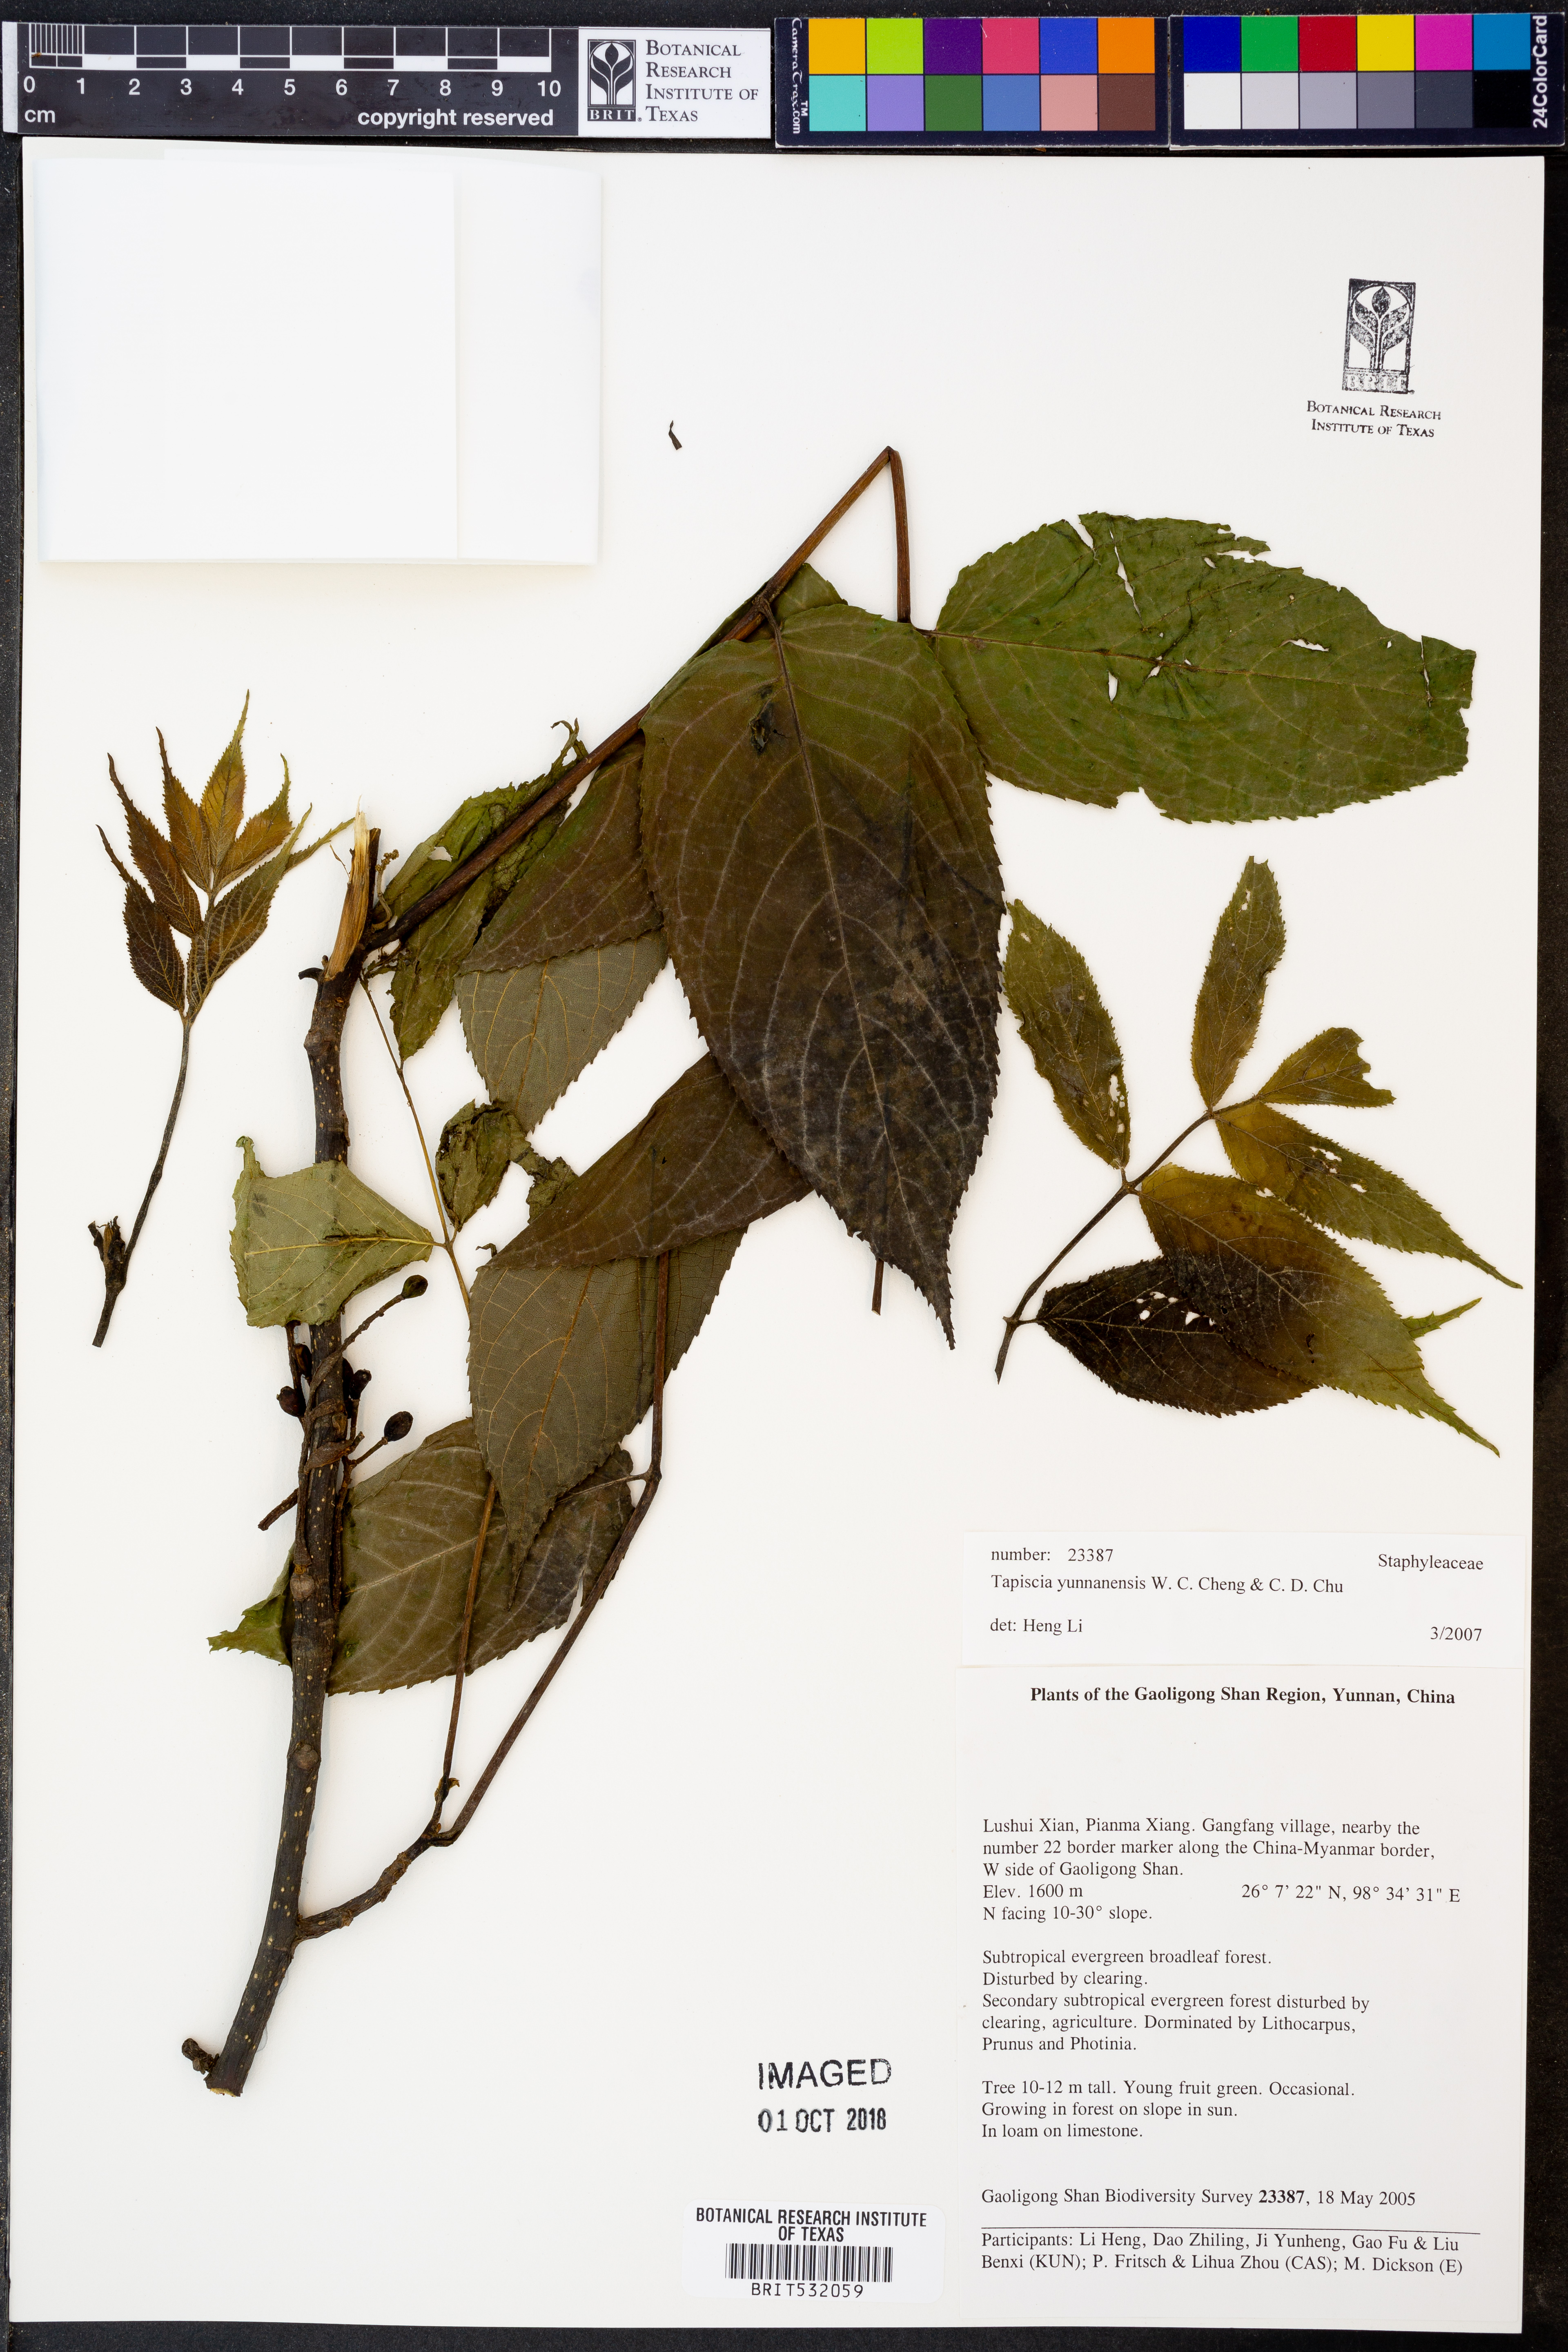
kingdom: Plantae
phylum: Tracheophyta
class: Magnoliopsida
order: Huerteales
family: Tapisciaceae
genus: Tapiscia
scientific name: Tapiscia yunnanensis
